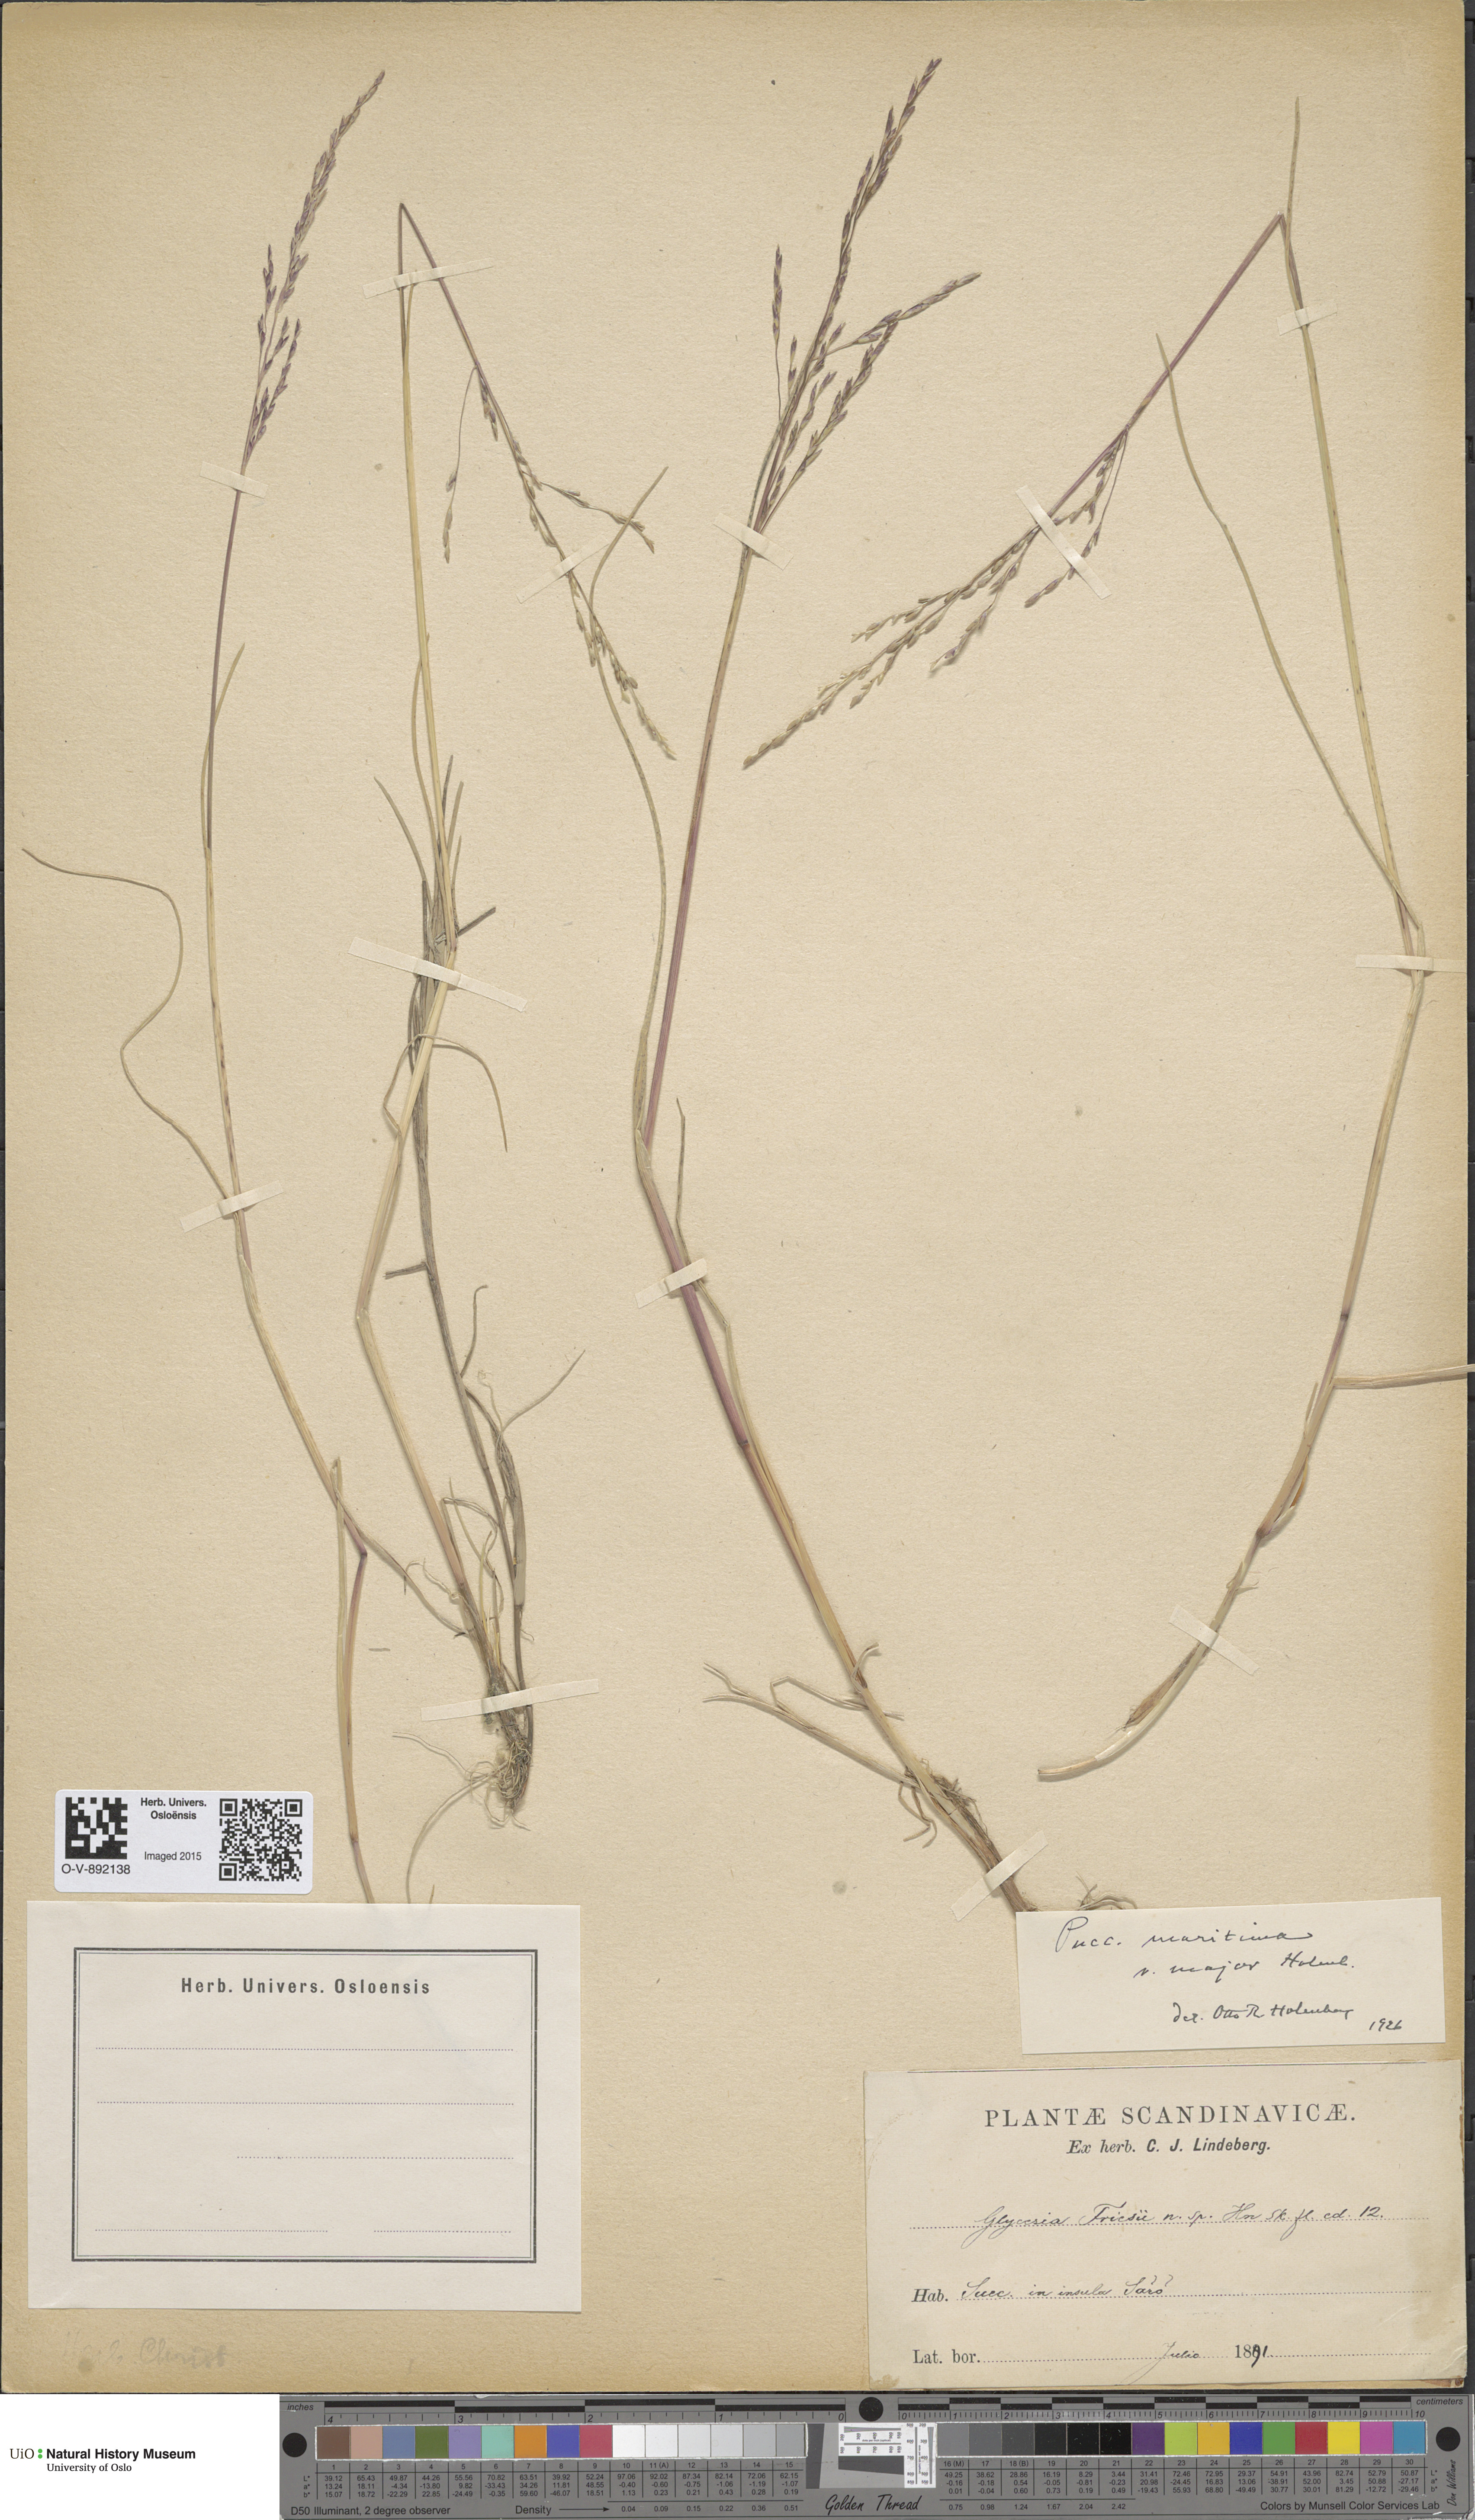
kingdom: Plantae
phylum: Tracheophyta
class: Liliopsida
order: Poales
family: Poaceae
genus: Puccinellia
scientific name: Puccinellia maritima
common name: Common saltmarsh grass
